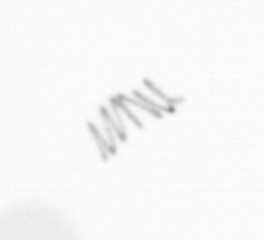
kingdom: Chromista
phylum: Ochrophyta
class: Bacillariophyceae
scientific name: Bacillariophyceae
